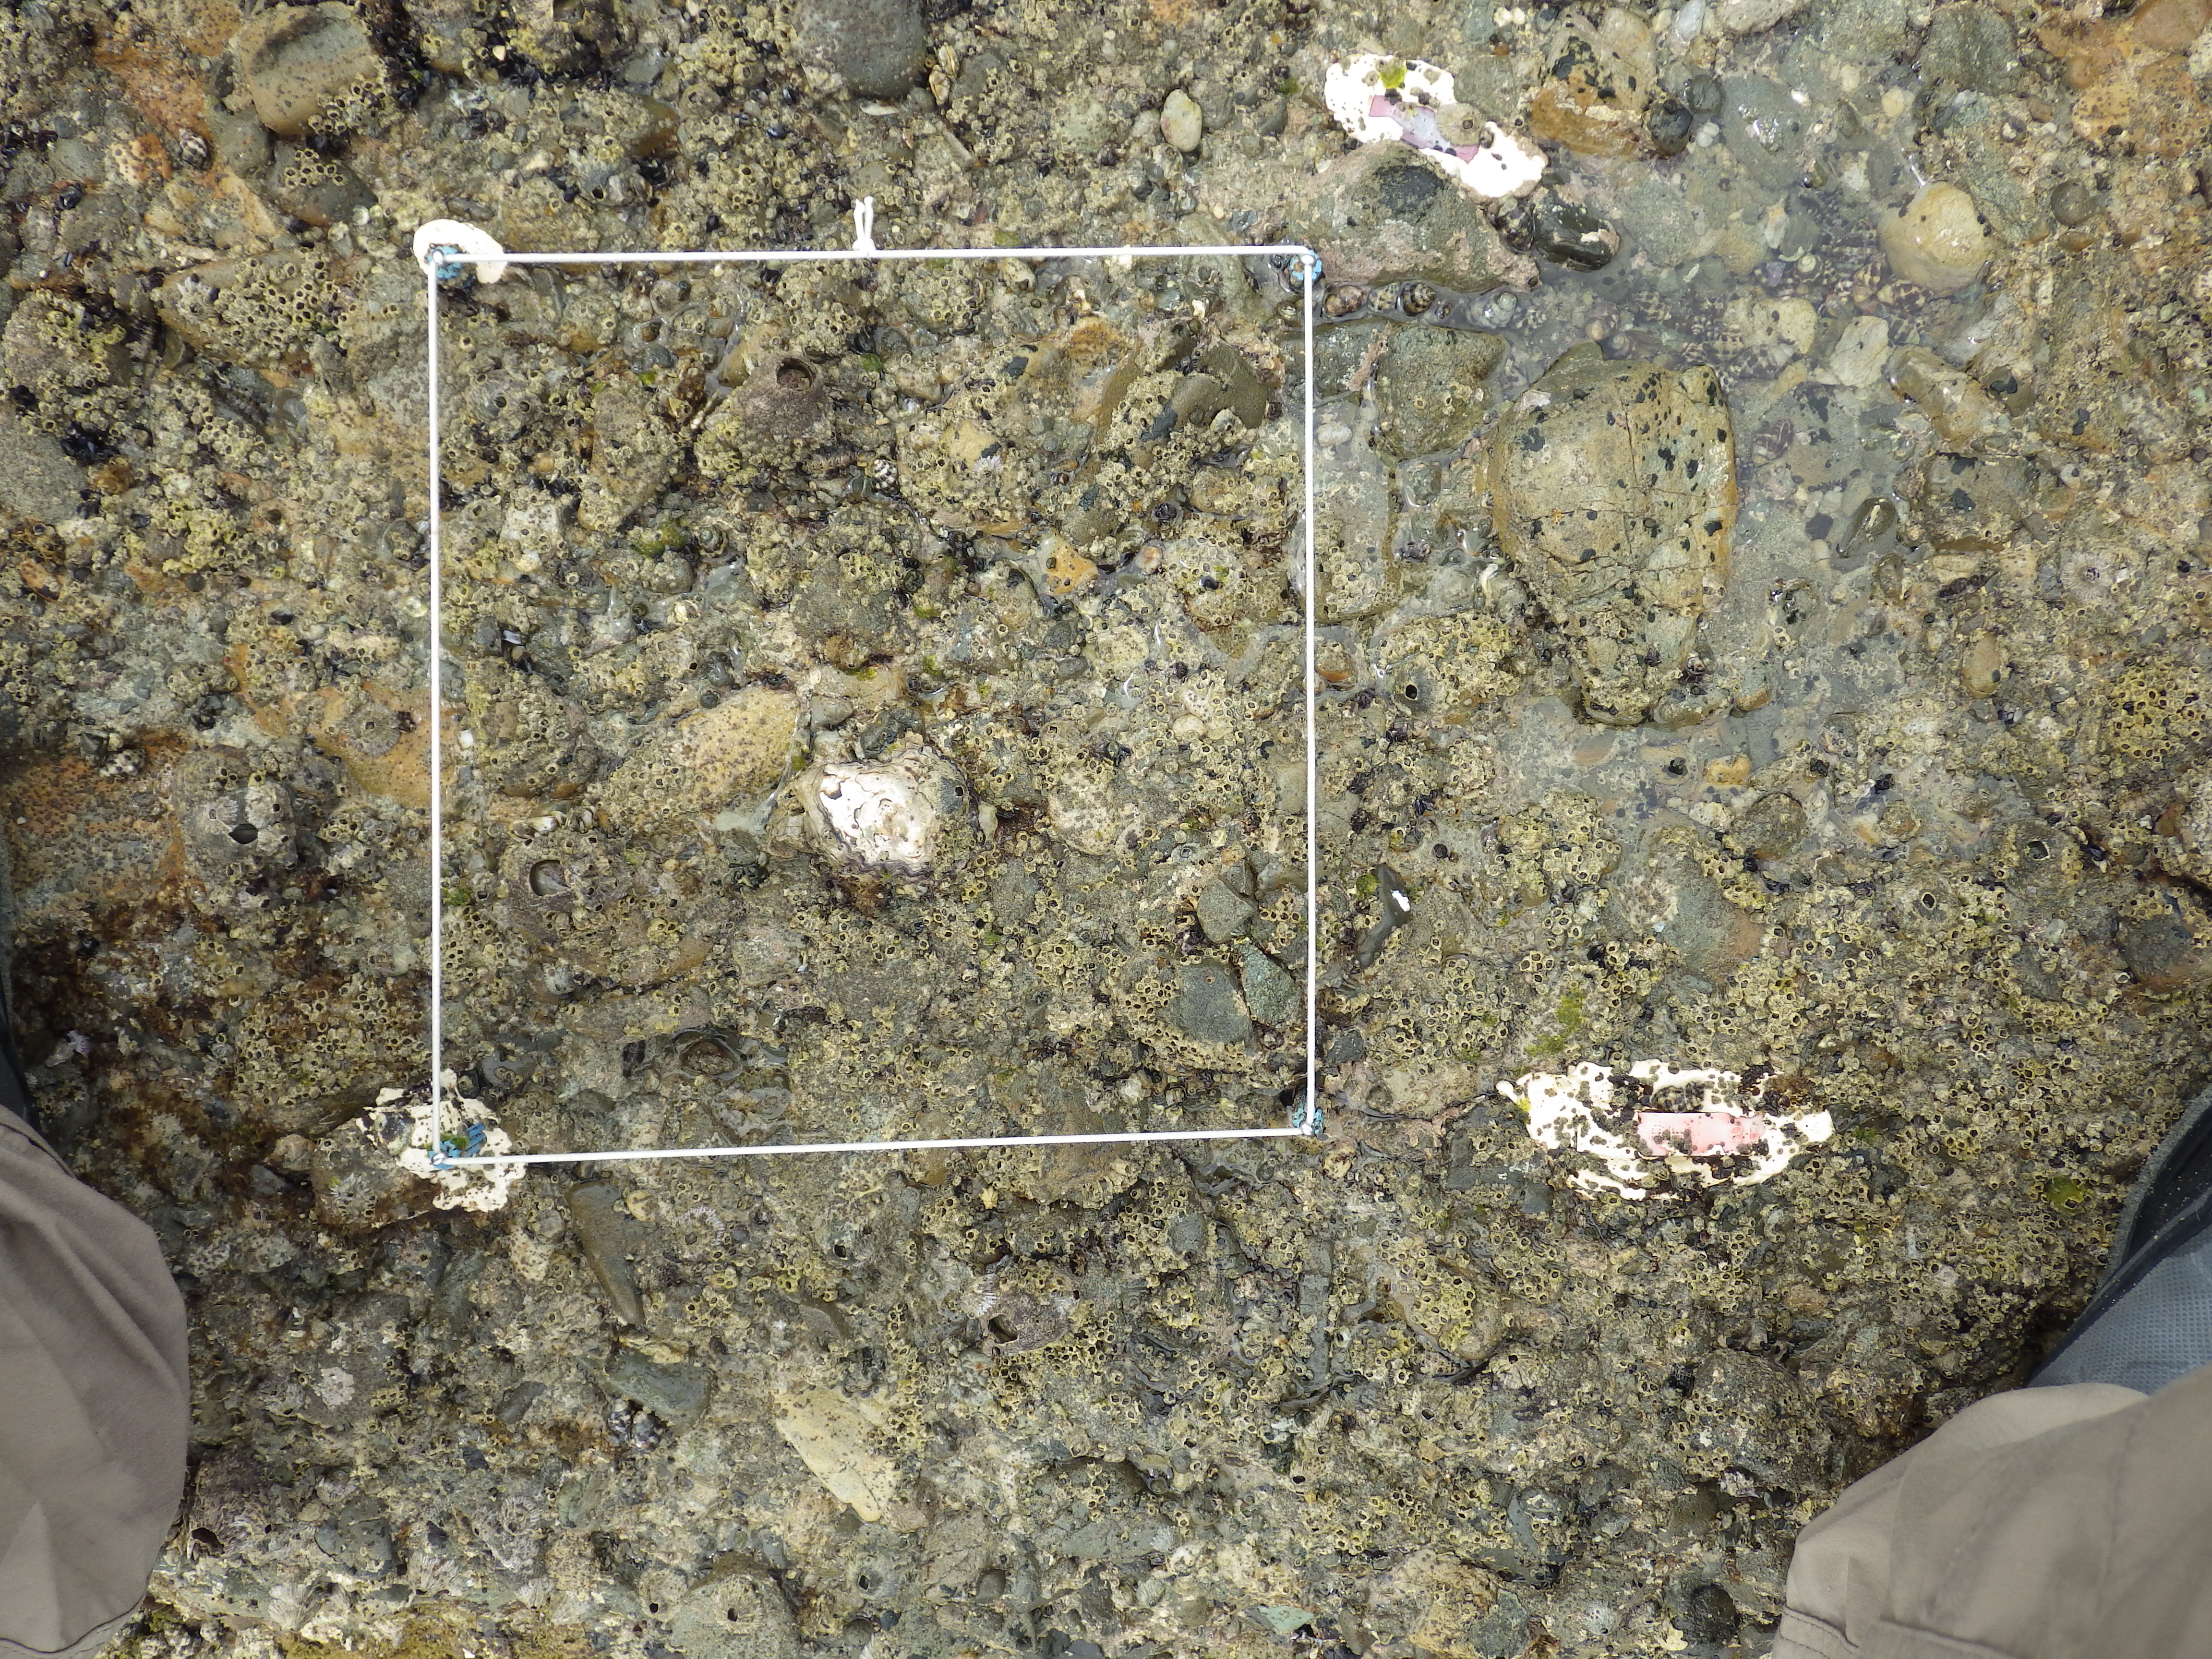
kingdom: Animalia
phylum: Arthropoda
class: Maxillopoda
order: Sessilia
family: Chthamalidae
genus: Chthamalus
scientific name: Chthamalus challengeri
